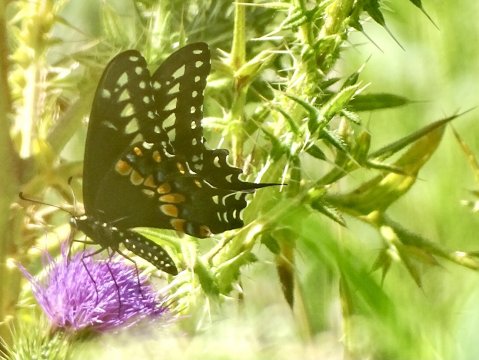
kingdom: Animalia
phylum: Arthropoda
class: Insecta
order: Lepidoptera
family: Papilionidae
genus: Papilio
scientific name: Papilio polyxenes
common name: Black Swallowtail
